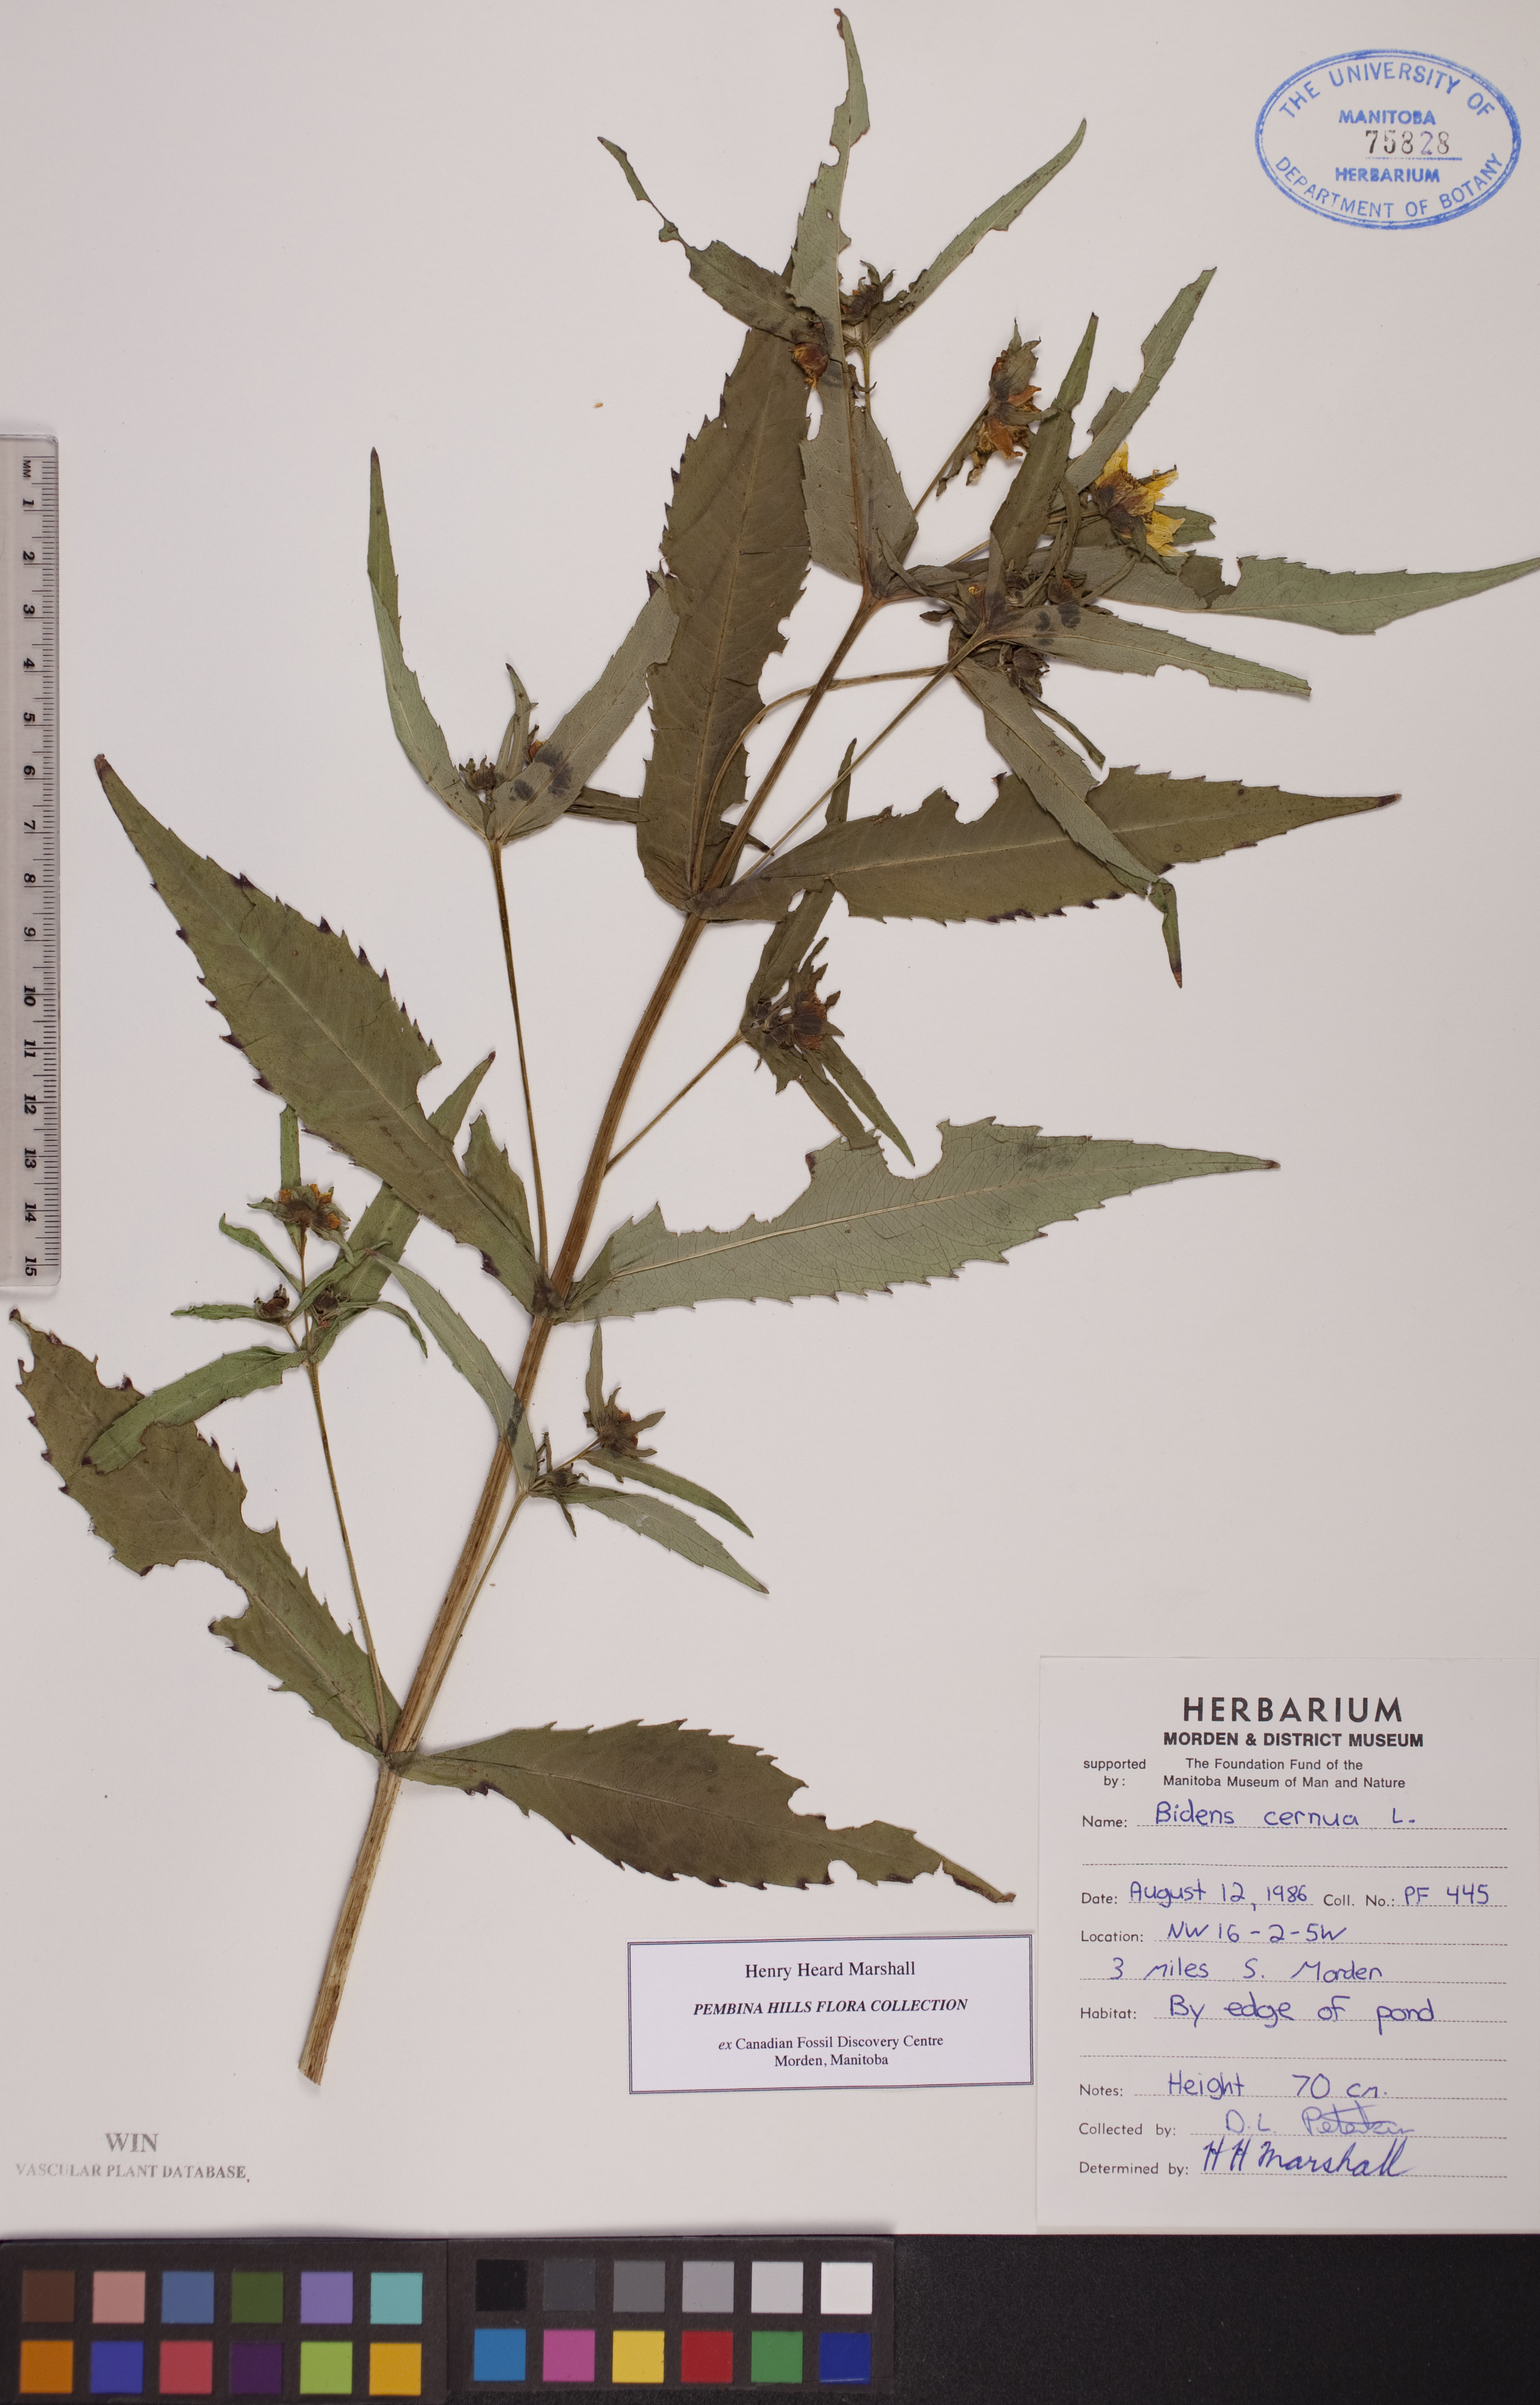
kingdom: Plantae
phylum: Tracheophyta
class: Magnoliopsida
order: Asterales
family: Asteraceae
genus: Bidens
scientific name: Bidens cernua
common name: Nodding bur-marigold
